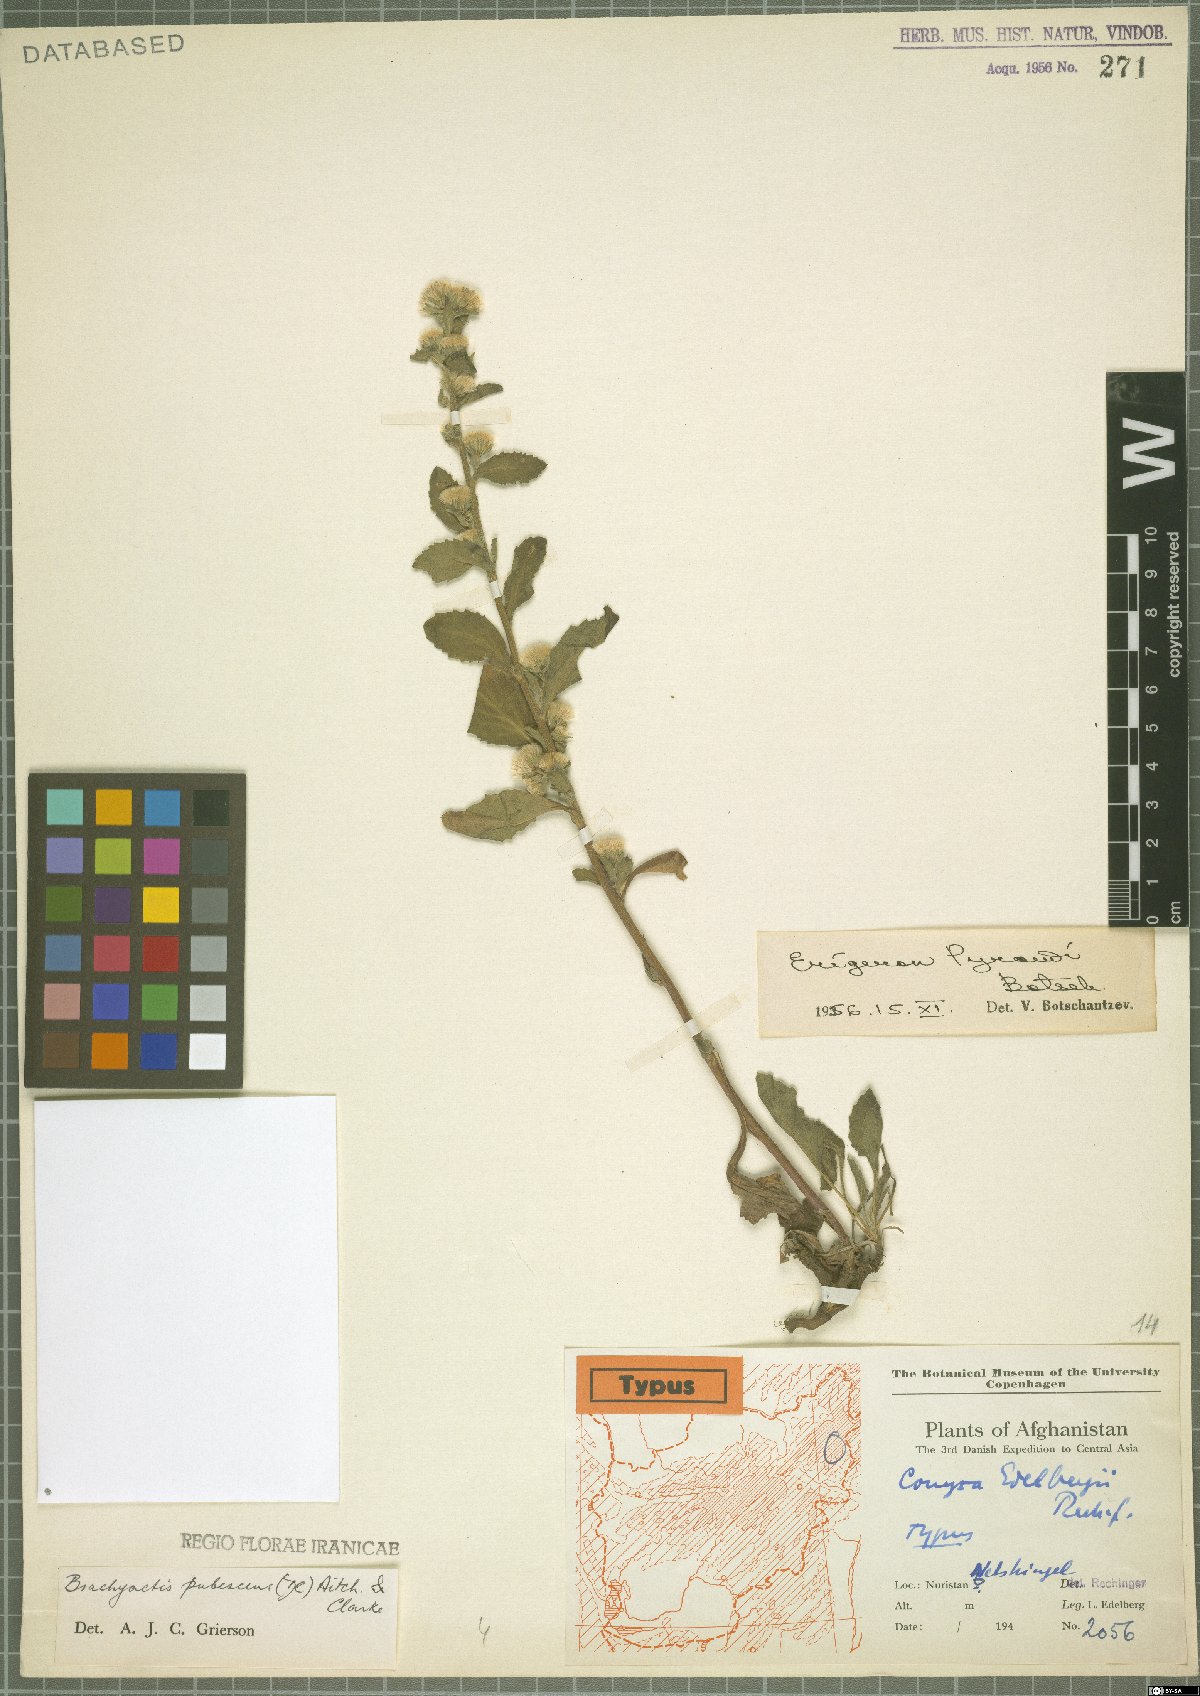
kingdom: Plantae
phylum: Tracheophyta
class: Magnoliopsida
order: Asterales
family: Asteraceae
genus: Neobrachyactis
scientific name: Neobrachyactis pubescens
